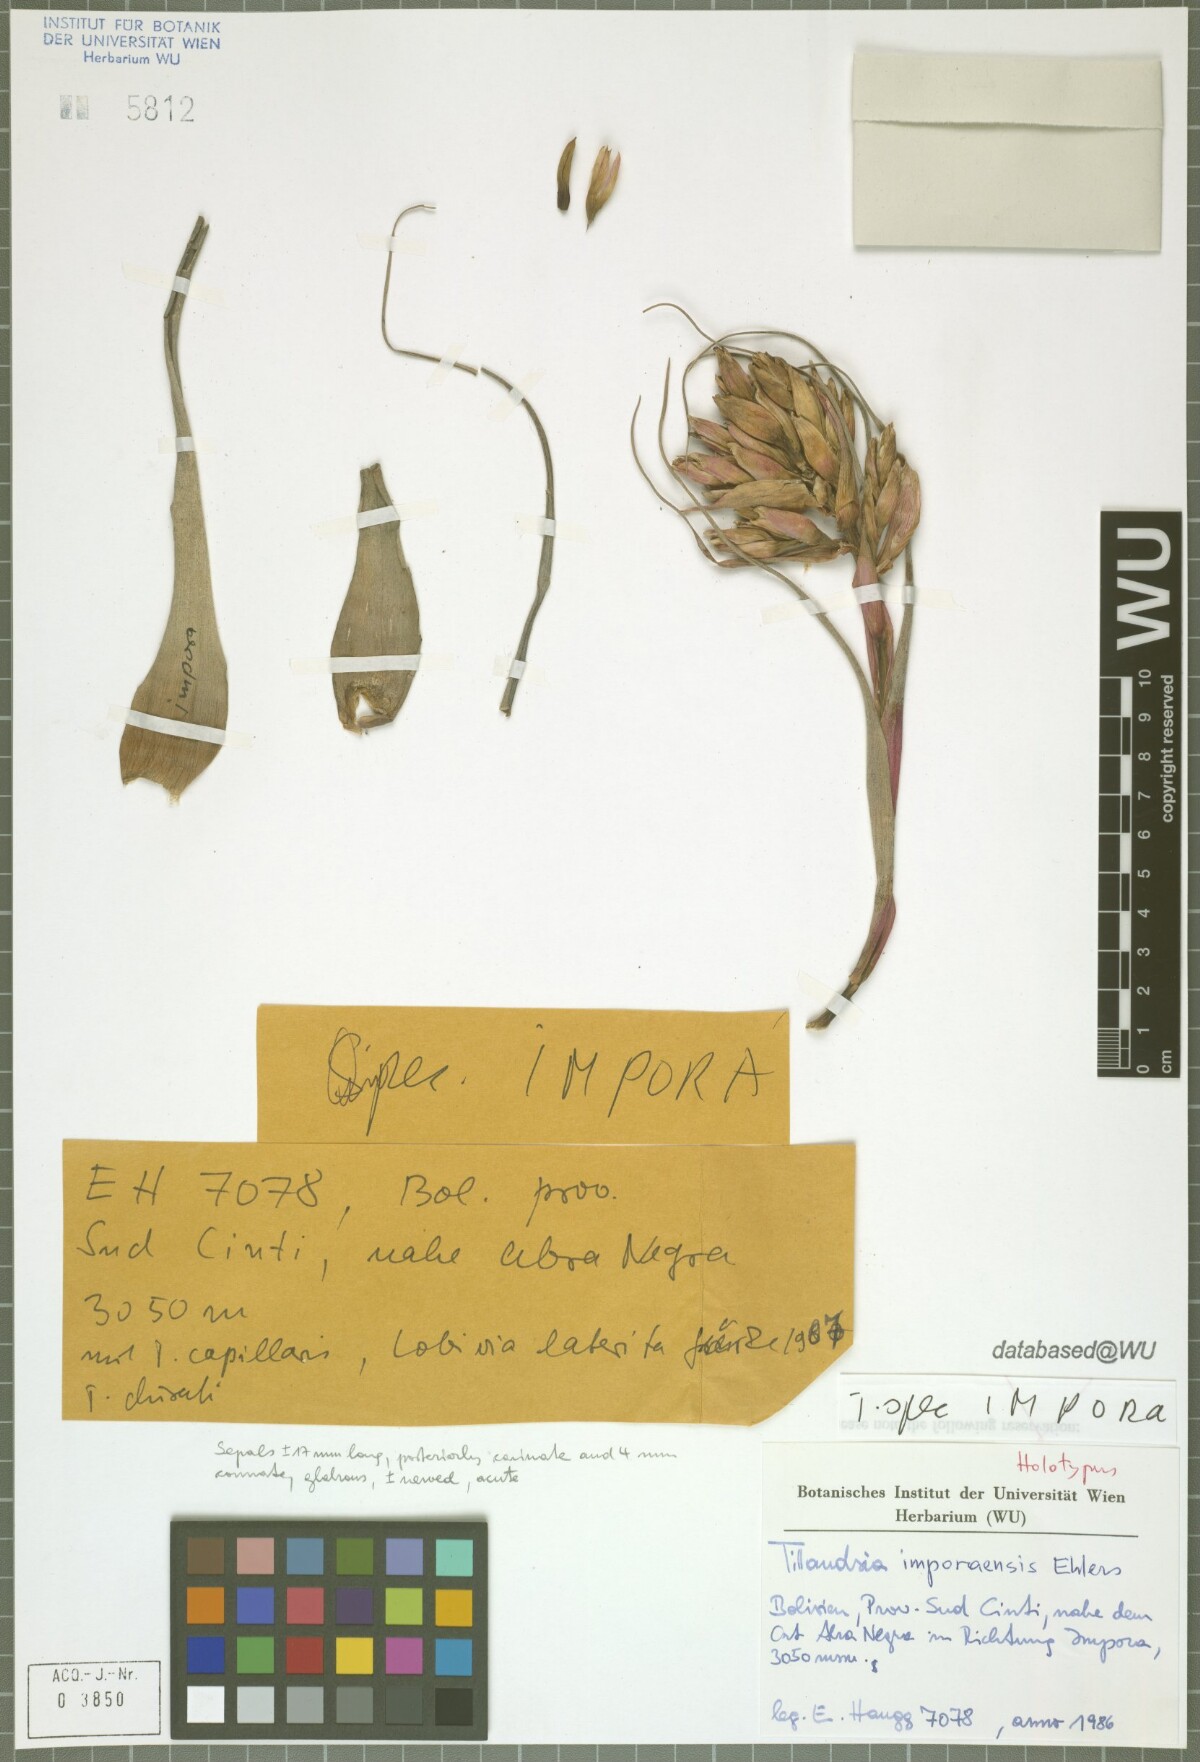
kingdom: Plantae
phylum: Tracheophyta
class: Liliopsida
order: Poales
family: Bromeliaceae
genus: Tillandsia
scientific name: Tillandsia imporaensis
